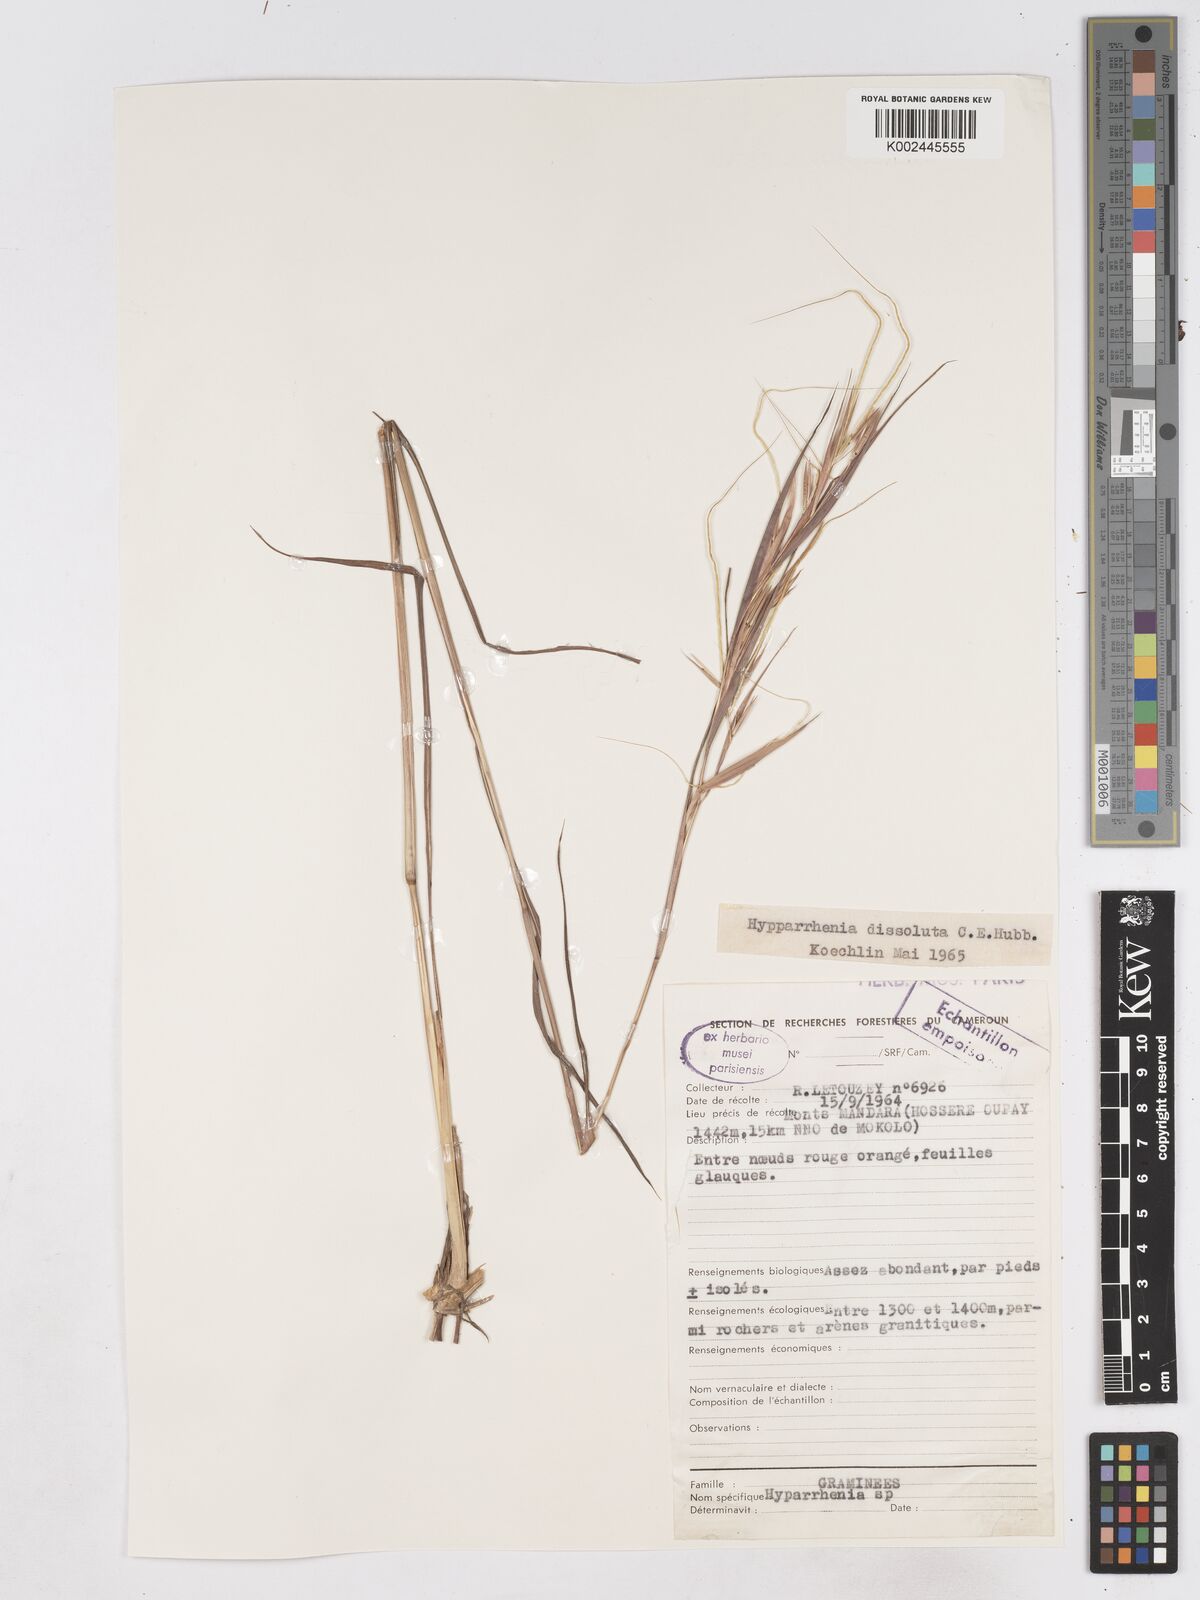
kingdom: Plantae
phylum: Tracheophyta
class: Liliopsida
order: Poales
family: Poaceae
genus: Hyperthelia
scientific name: Hyperthelia dissoluta
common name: Yellow thatching grass
